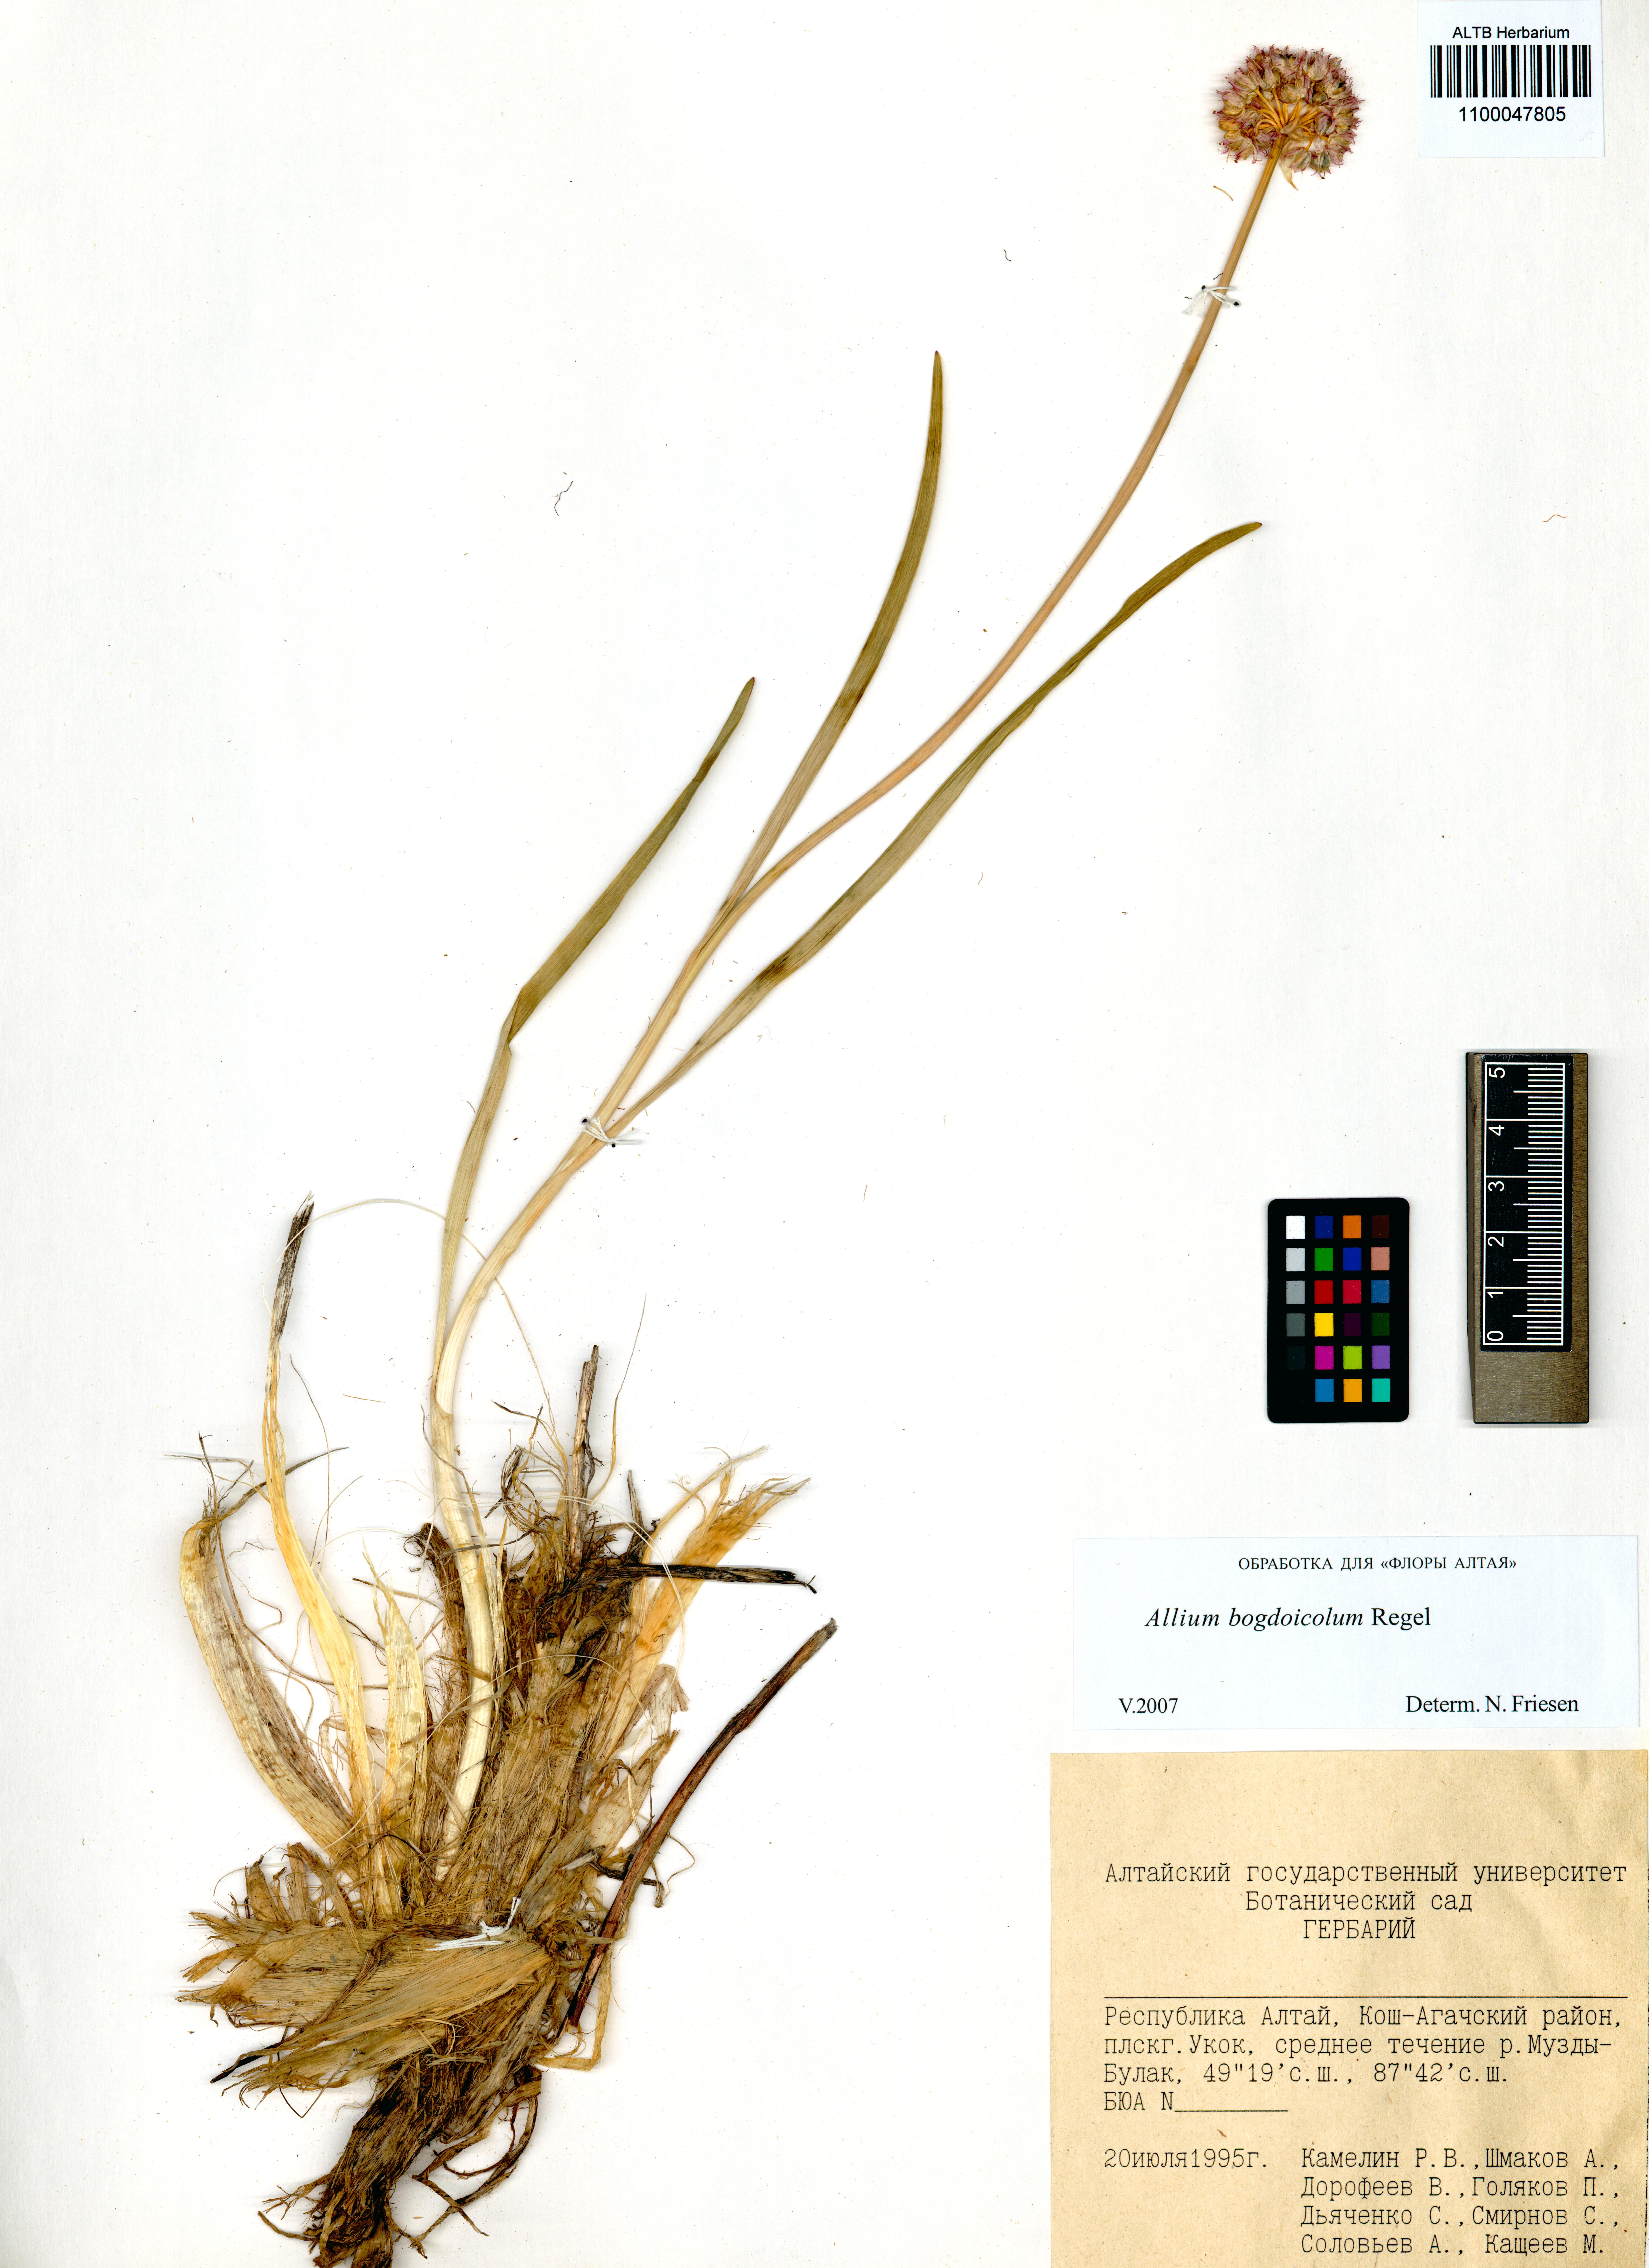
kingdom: Plantae
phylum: Tracheophyta
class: Liliopsida
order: Asparagales
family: Amaryllidaceae
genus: Allium
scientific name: Allium schrenkii
